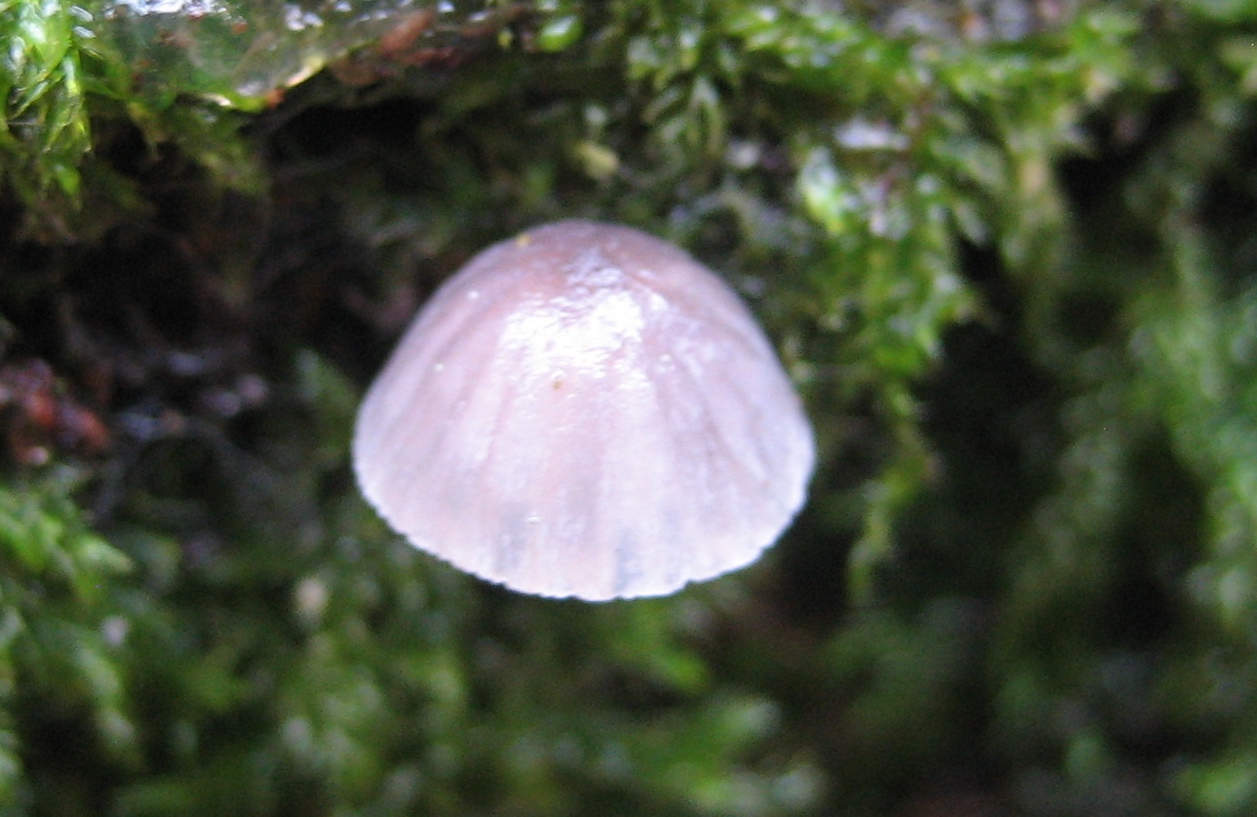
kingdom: Fungi
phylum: Basidiomycota
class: Agaricomycetes
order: Agaricales
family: Mycenaceae
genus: Mycena
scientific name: Mycena pseudocorticola
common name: gråblå bark-huesvamp
